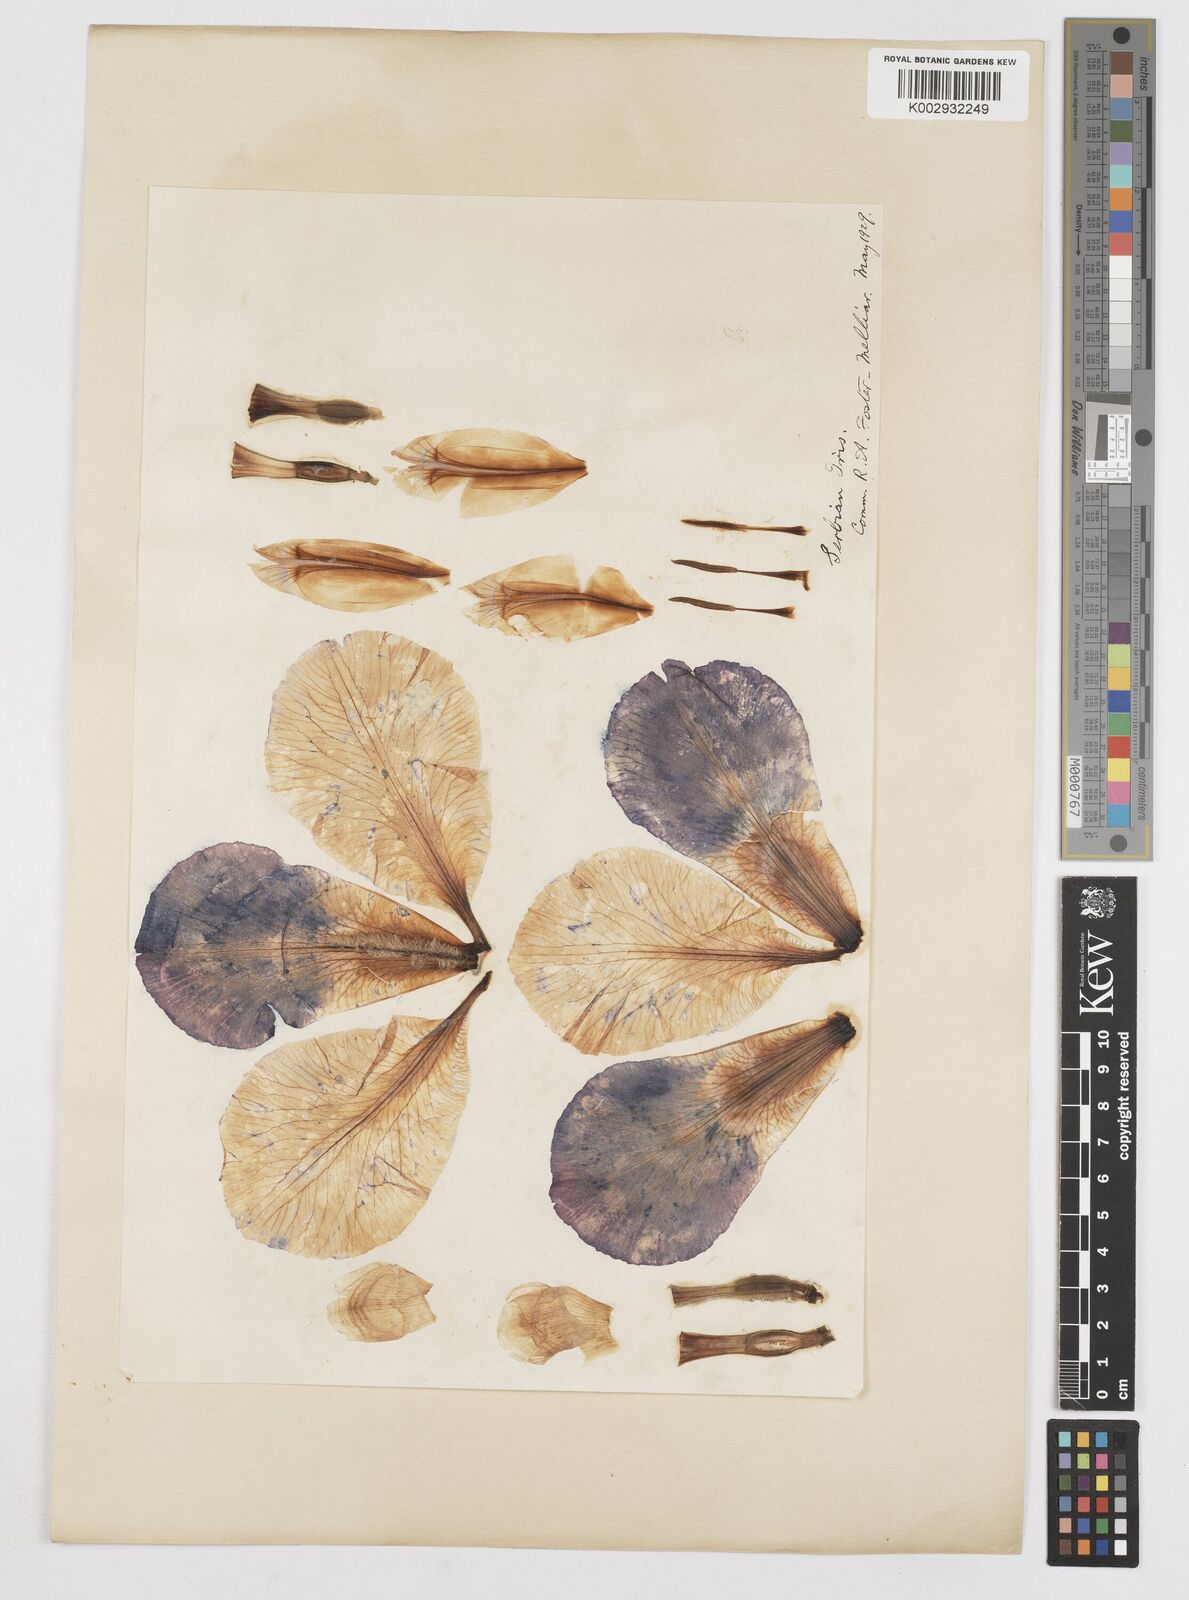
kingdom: Plantae
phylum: Tracheophyta
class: Liliopsida
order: Asparagales
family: Iridaceae
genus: Iris
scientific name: Iris
